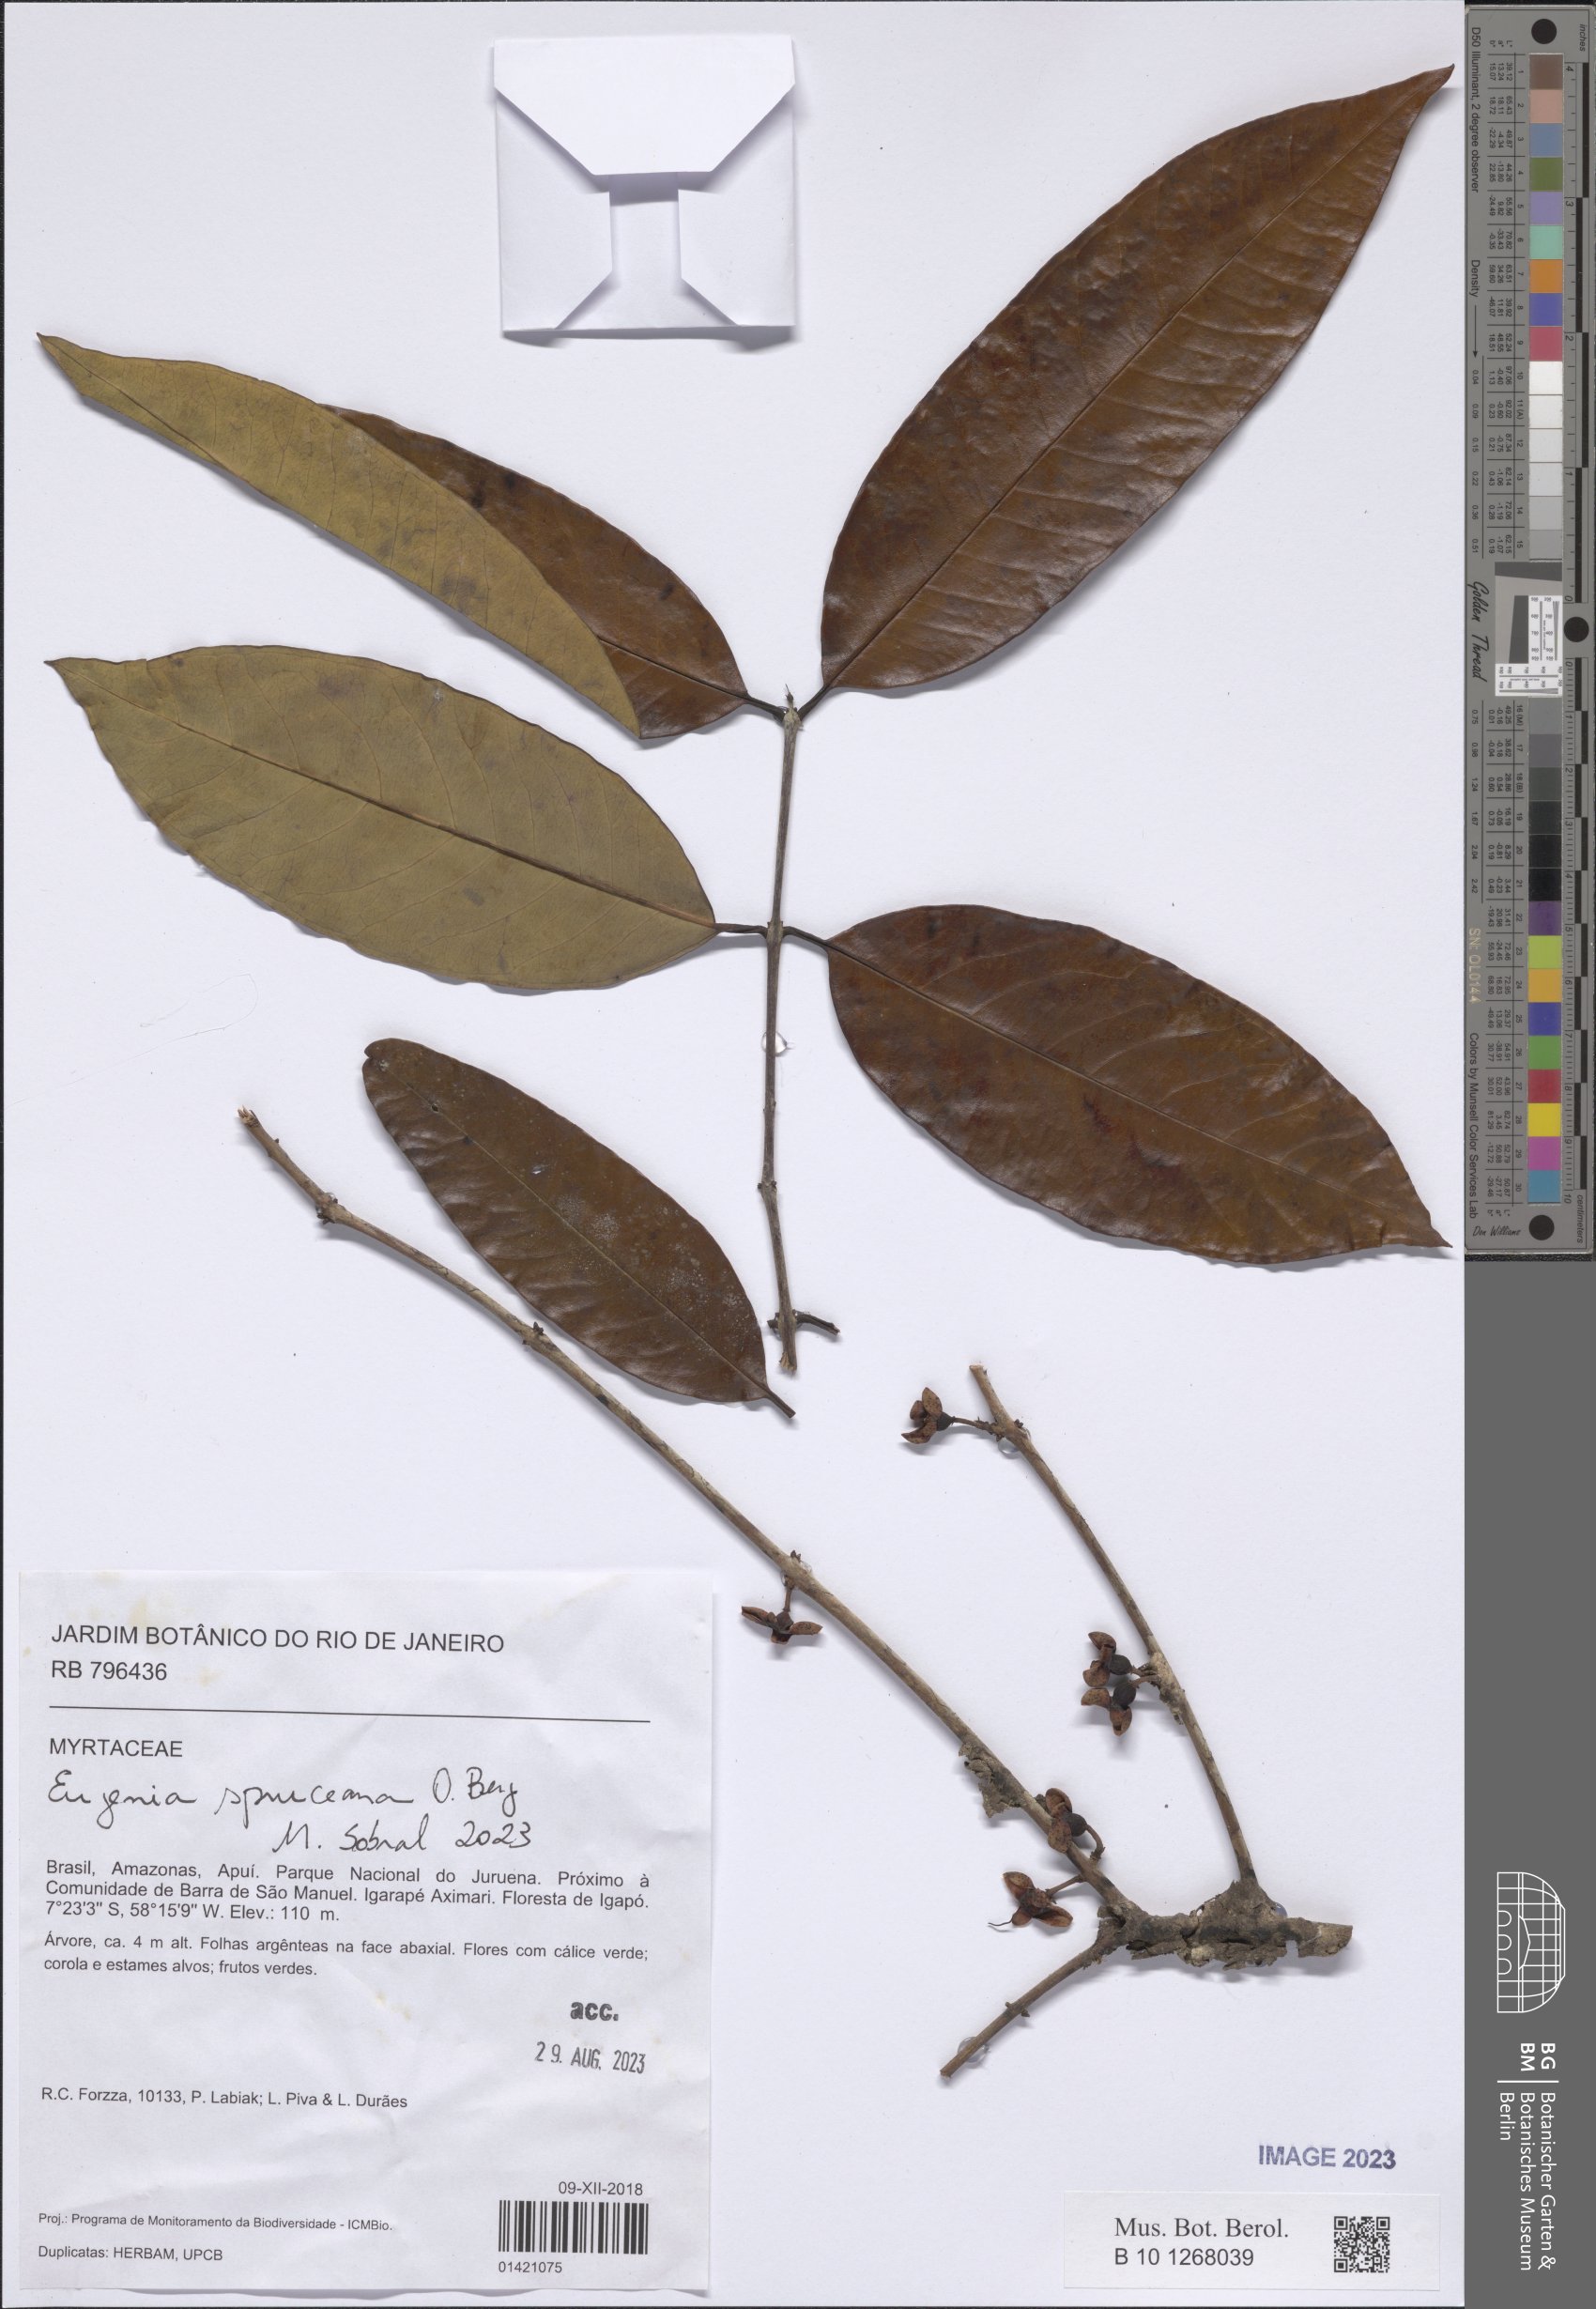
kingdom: Plantae
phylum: Tracheophyta
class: Magnoliopsida
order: Myrtales
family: Myrtaceae
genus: Eugenia
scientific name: Eugenia spruceana
